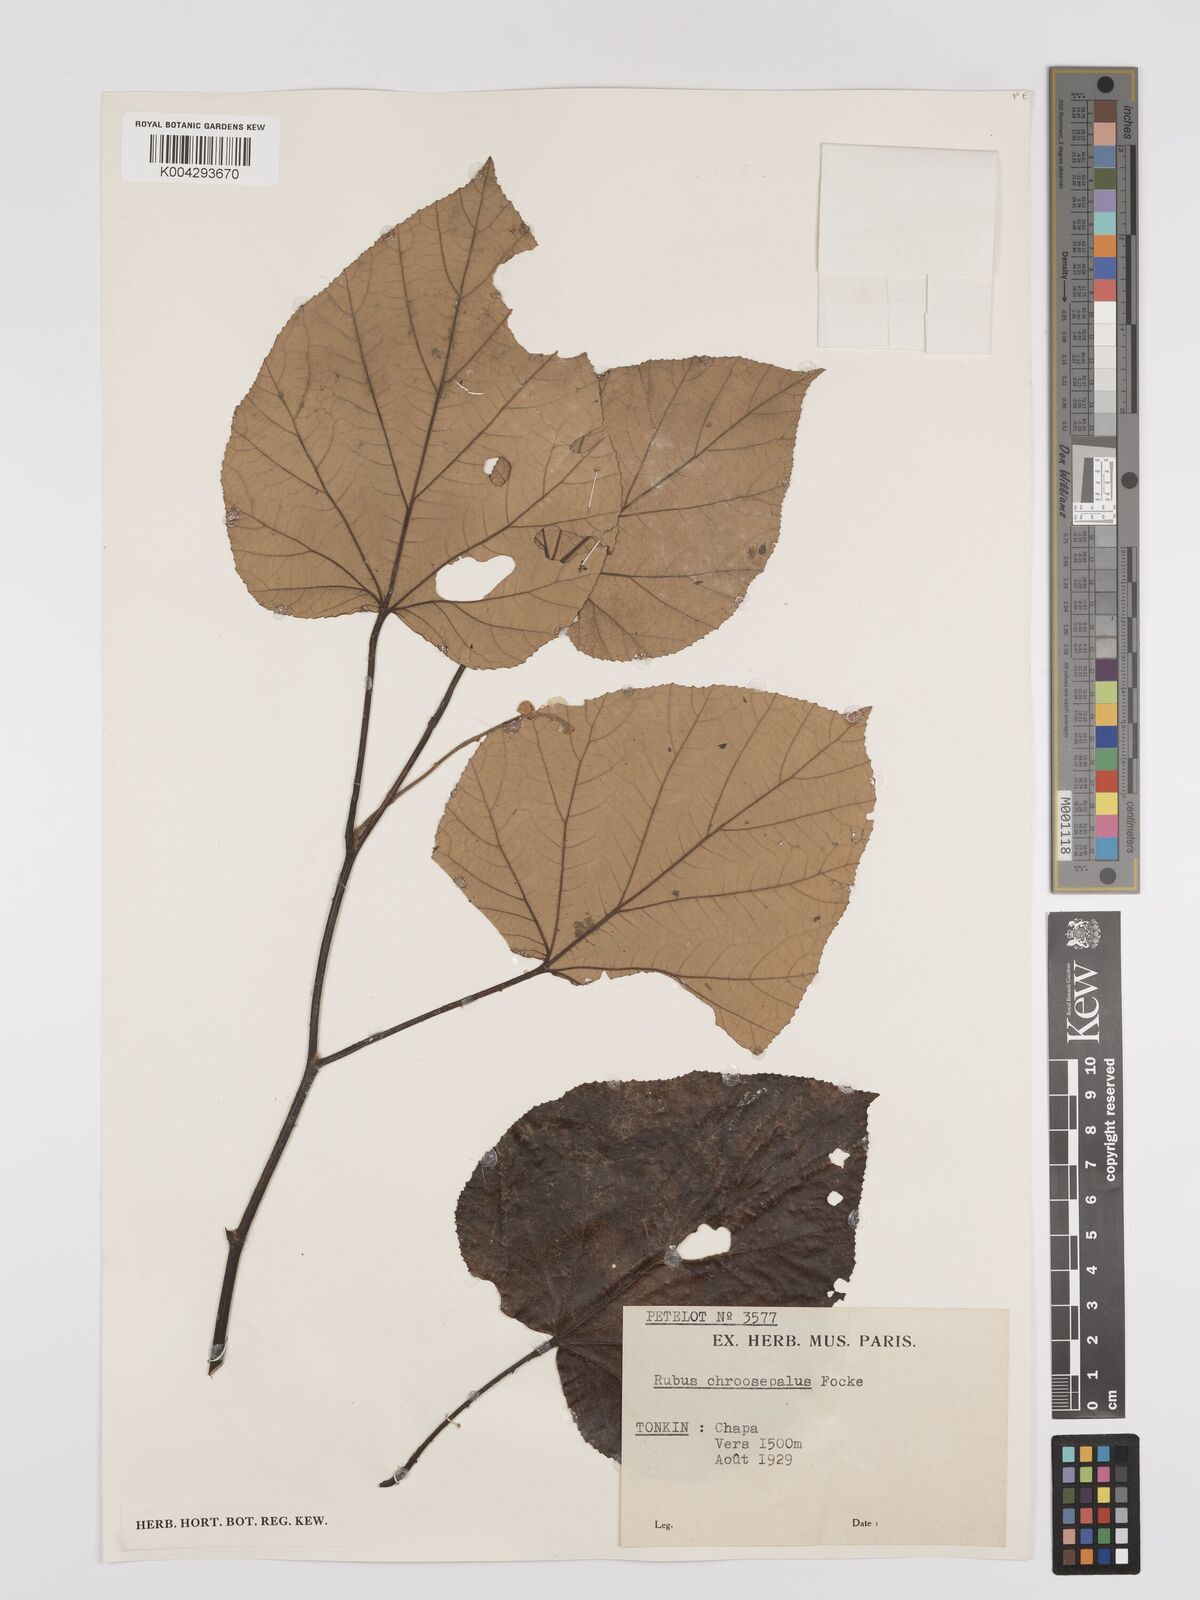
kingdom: Plantae
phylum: Tracheophyta
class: Magnoliopsida
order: Rosales
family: Rosaceae
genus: Rubus
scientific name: Rubus chroosepalus
